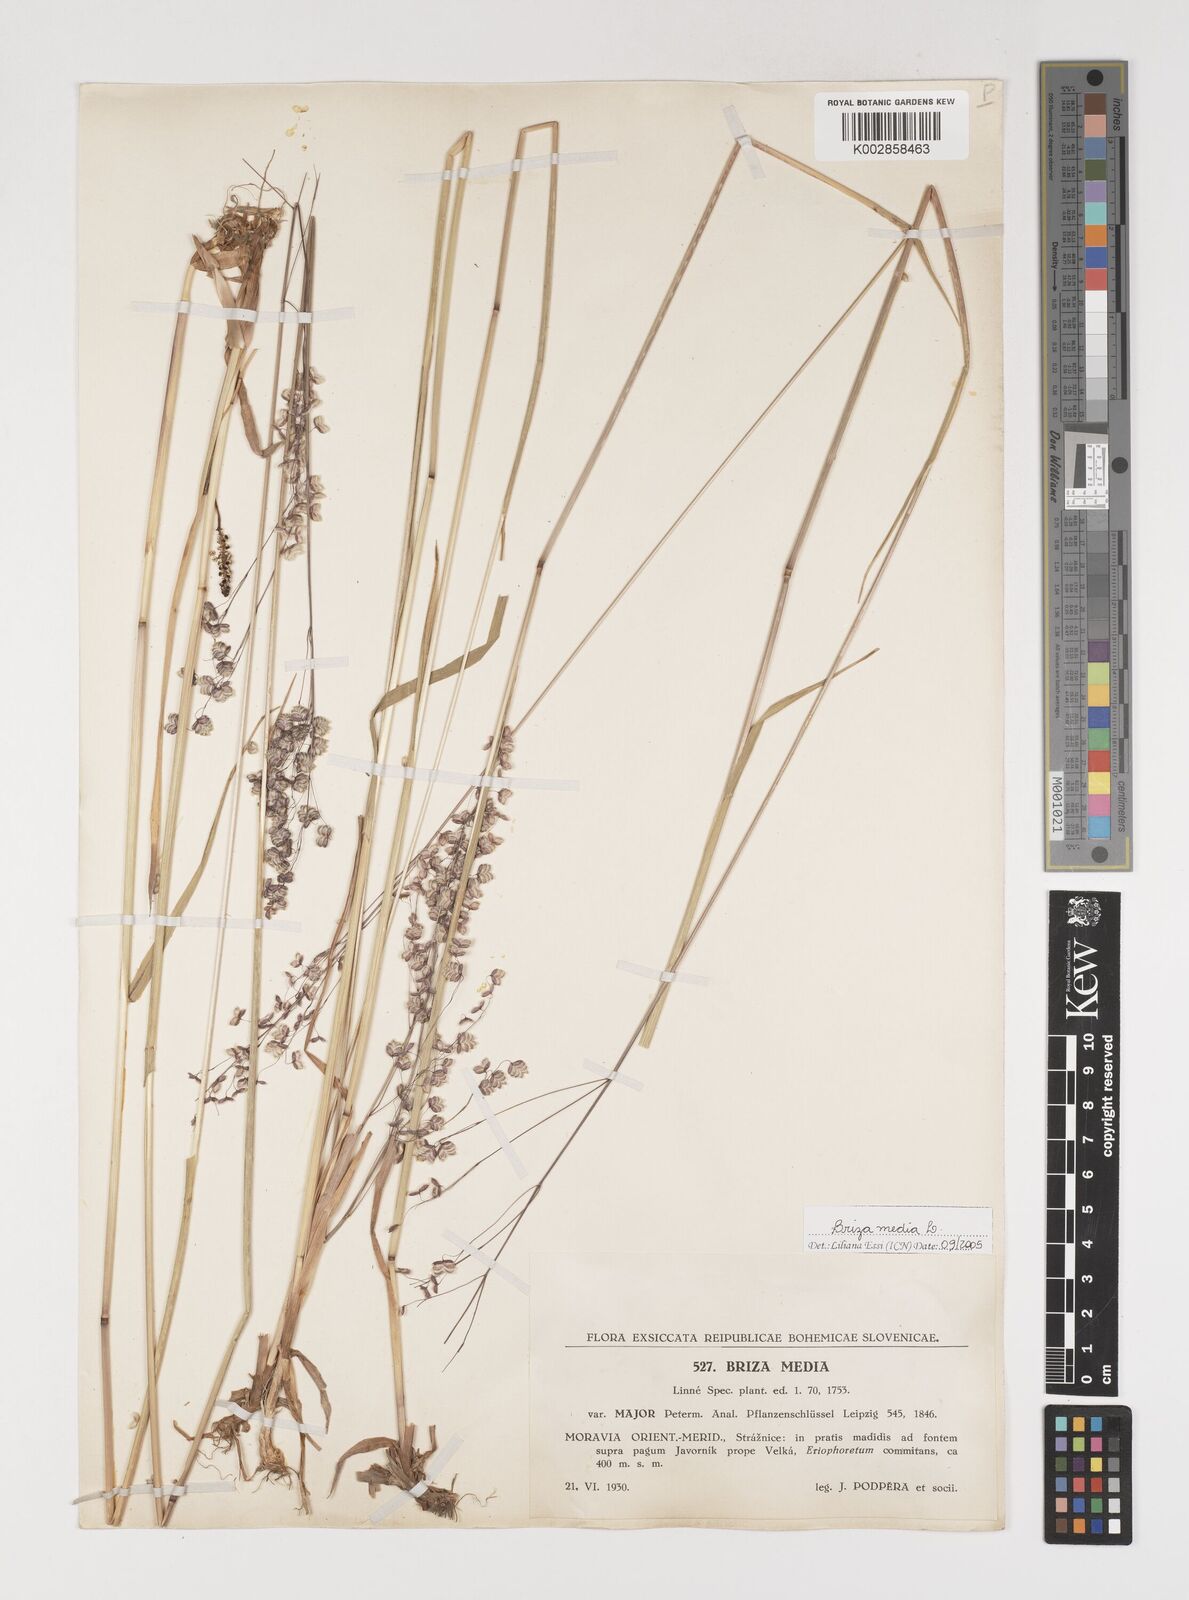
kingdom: Plantae
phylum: Tracheophyta
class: Liliopsida
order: Poales
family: Poaceae
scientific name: Poaceae
